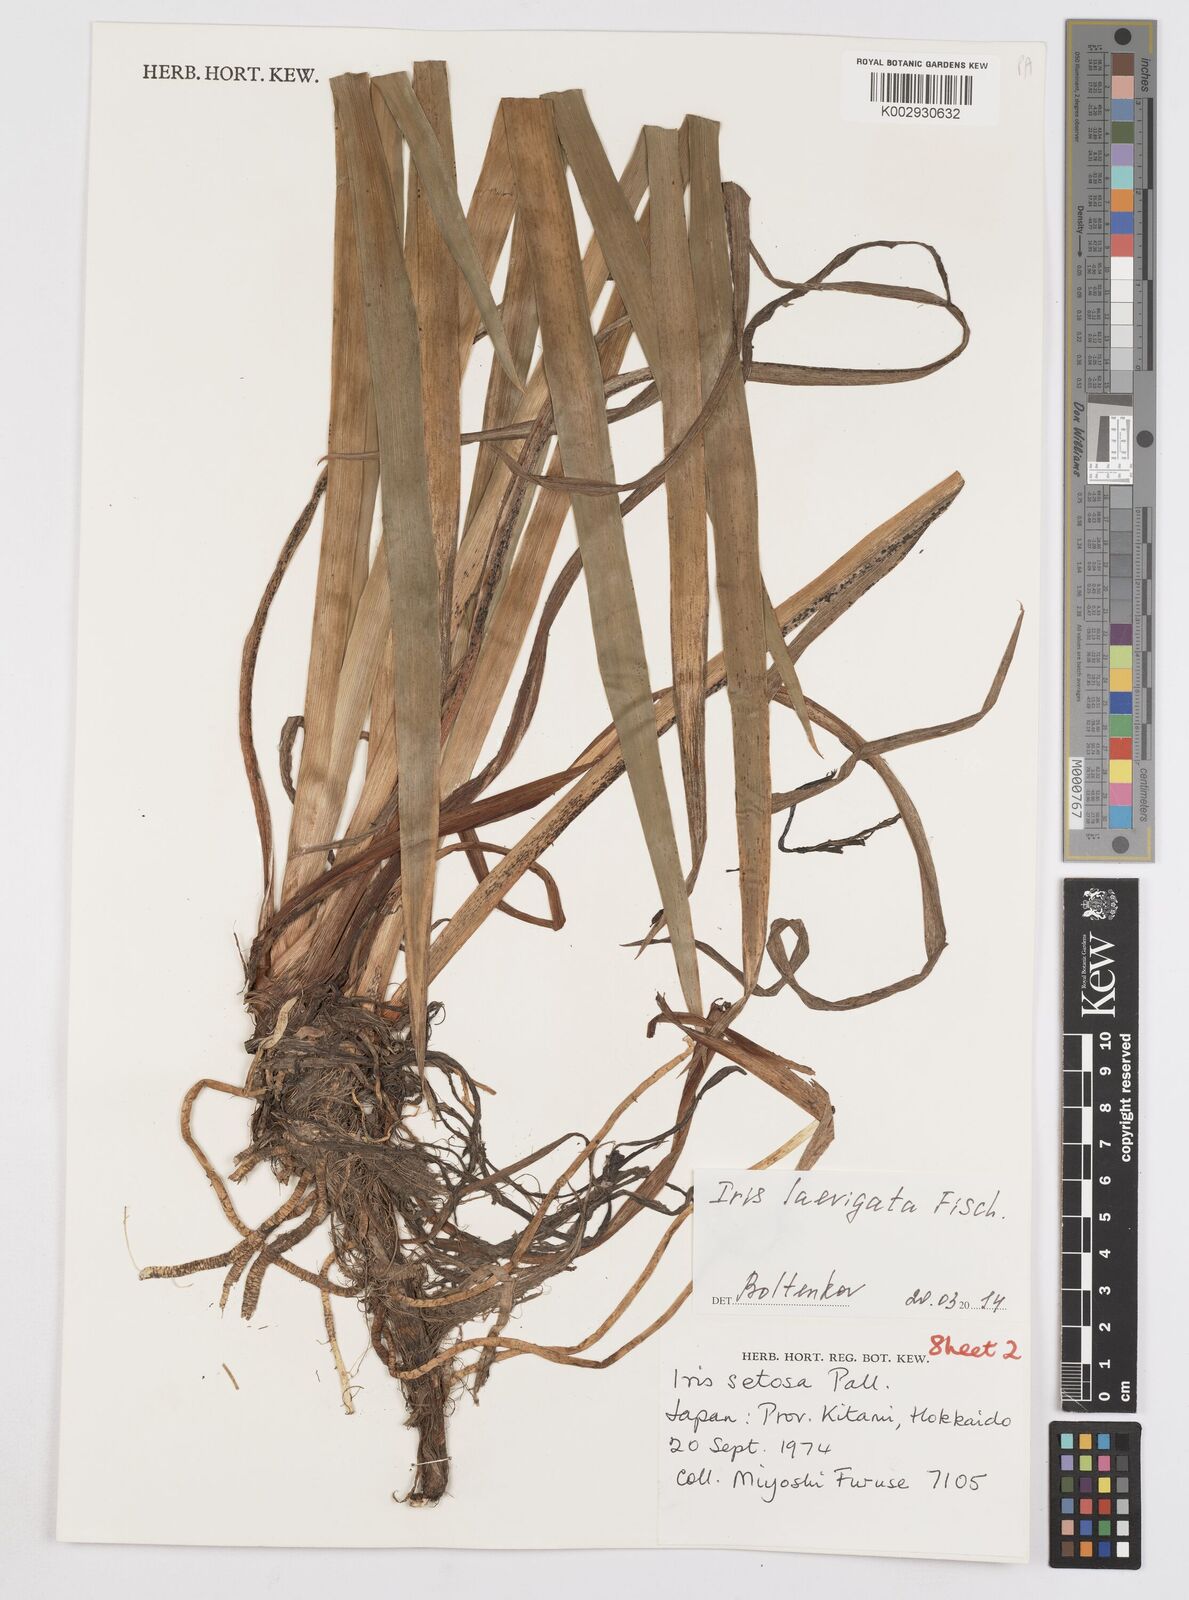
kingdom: Plantae
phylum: Tracheophyta
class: Liliopsida
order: Asparagales
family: Iridaceae
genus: Iris
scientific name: Iris laevigata
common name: Japanese iris
